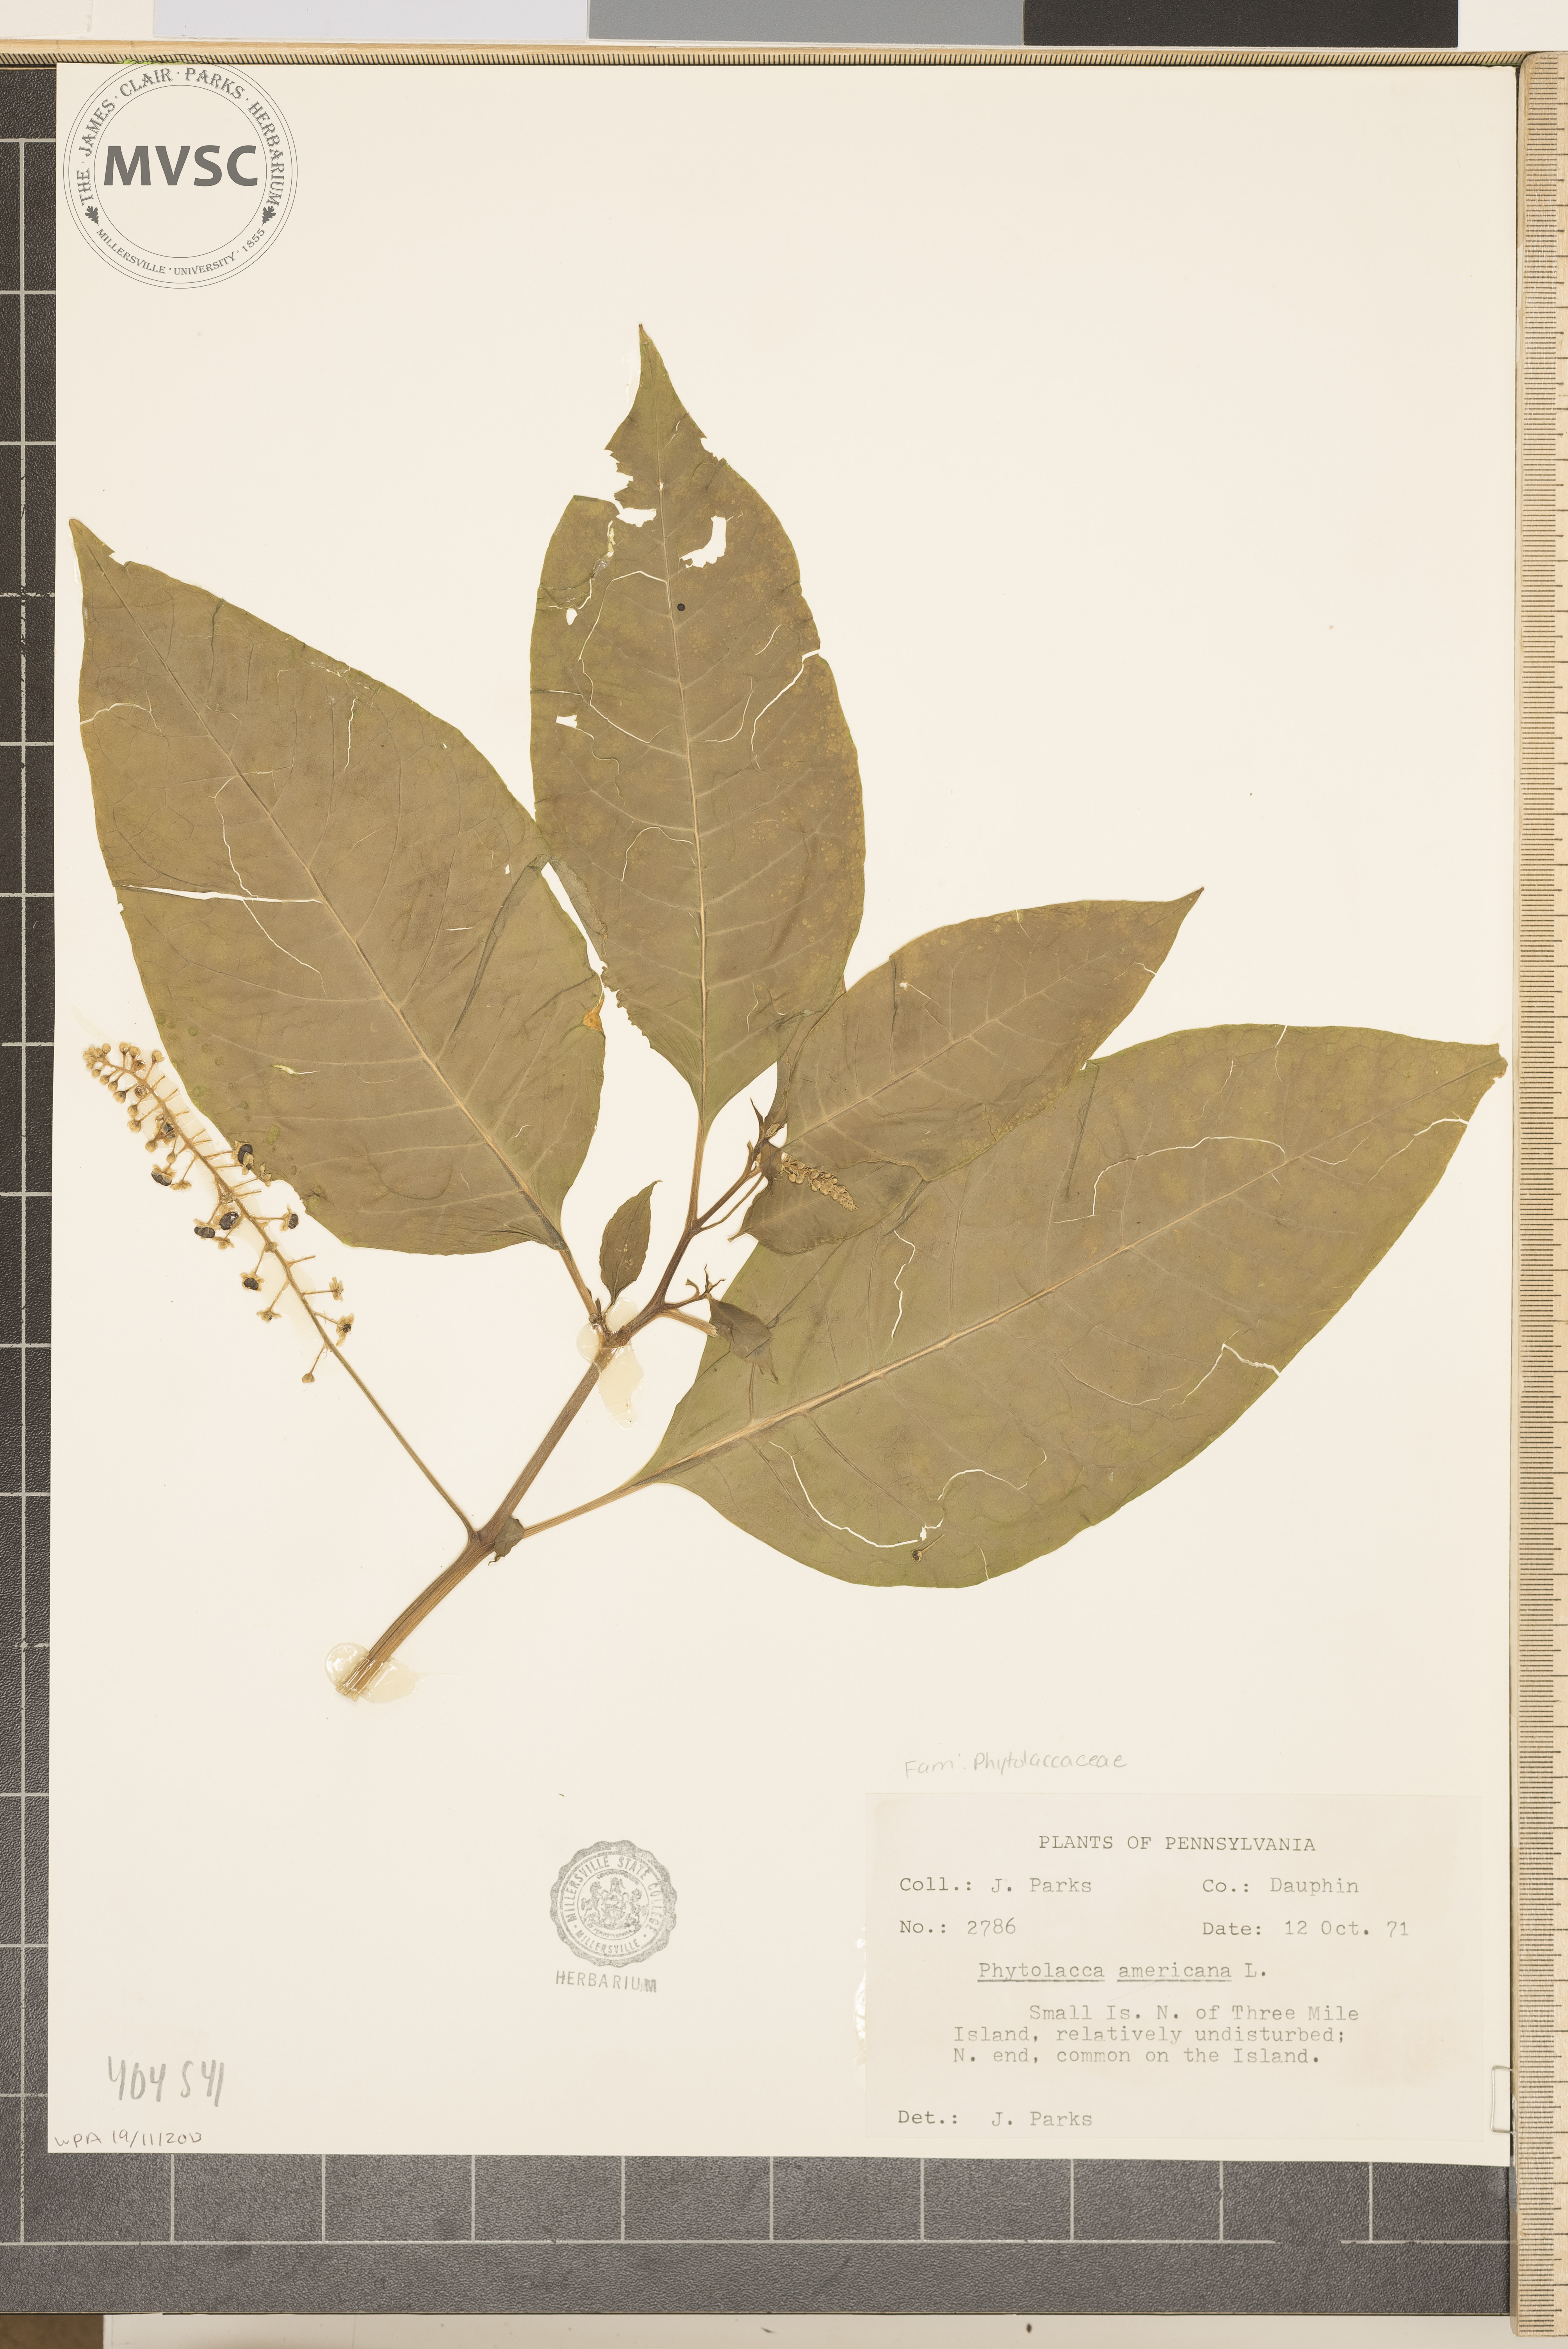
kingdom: Plantae
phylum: Tracheophyta
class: Magnoliopsida
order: Caryophyllales
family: Phytolaccaceae
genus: Phytolacca
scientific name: Phytolacca americana
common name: American pokeweed
